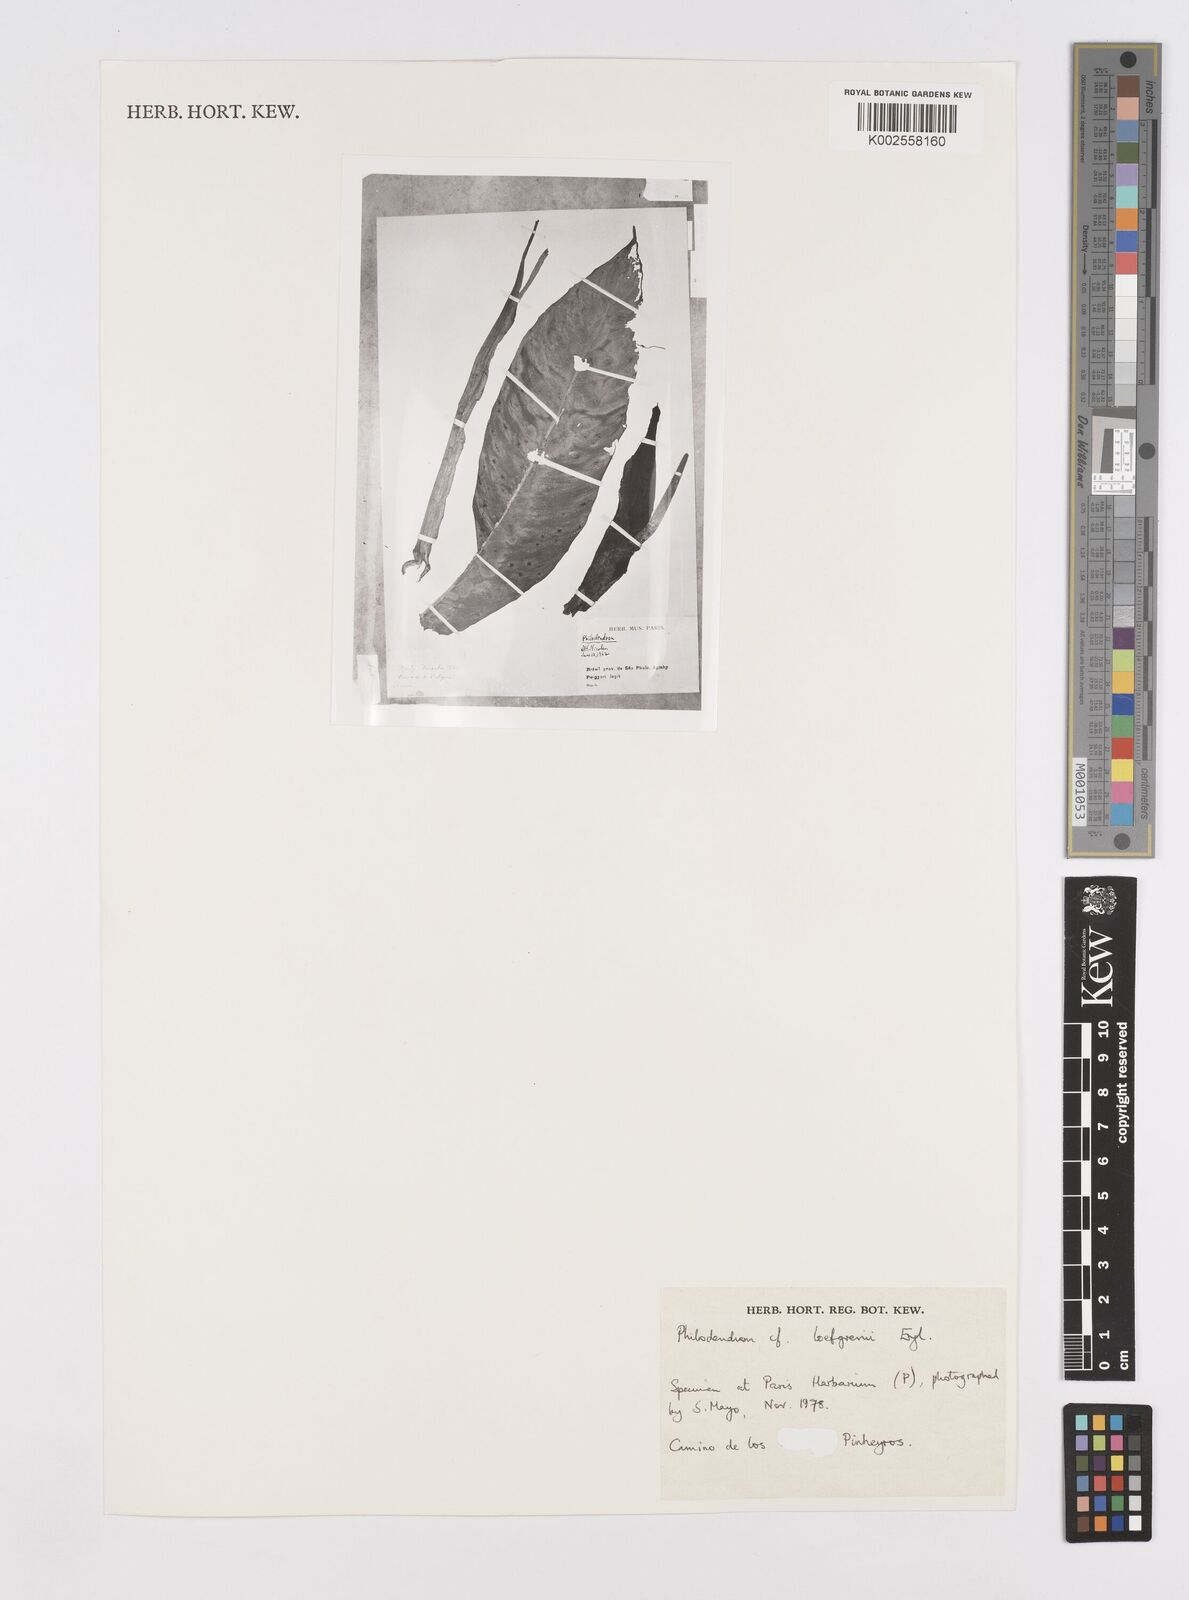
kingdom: Plantae
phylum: Tracheophyta
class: Liliopsida
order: Alismatales
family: Araceae
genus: Philodendron
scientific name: Philodendron loefgrenii
